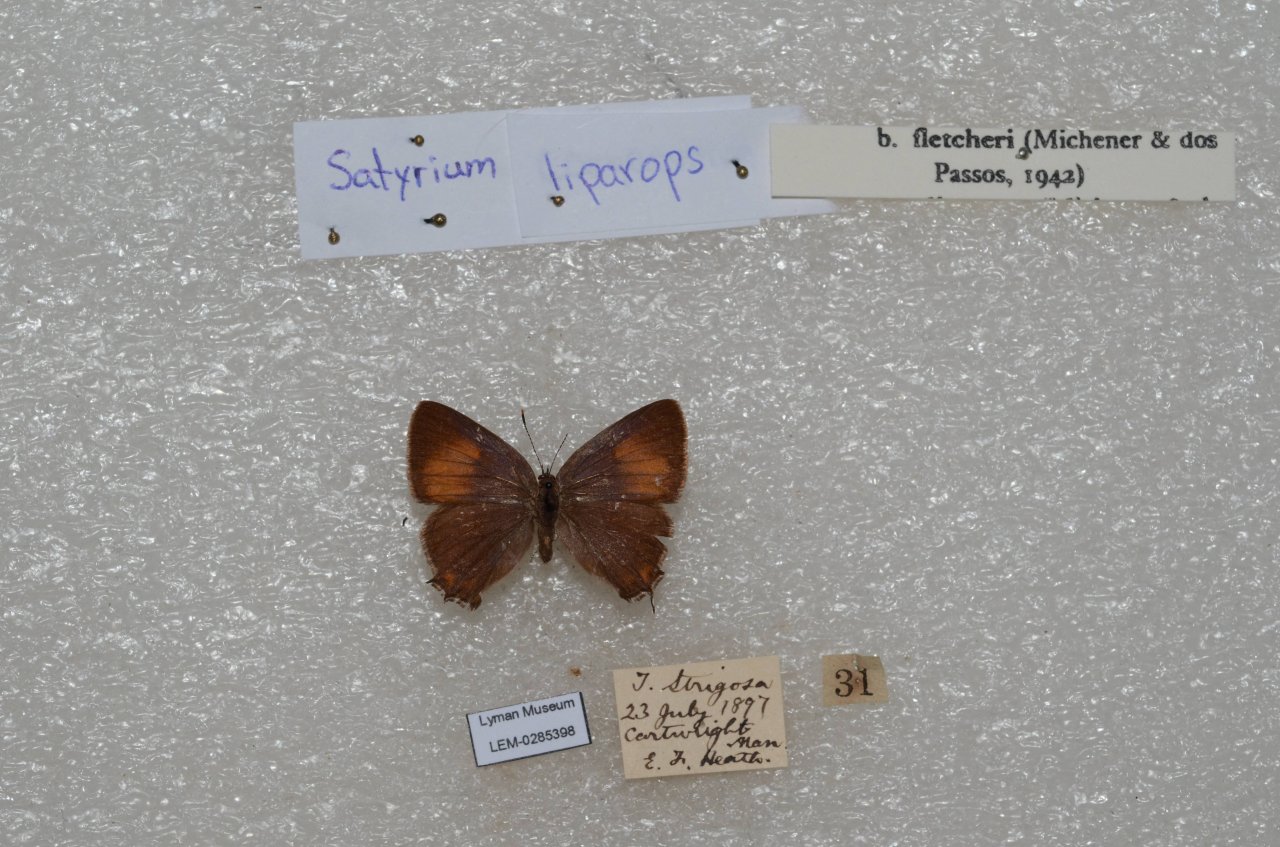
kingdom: Animalia
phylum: Arthropoda
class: Insecta
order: Lepidoptera
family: Lycaenidae
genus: Satyrium
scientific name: Satyrium liparops
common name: Striped Hairstreak
